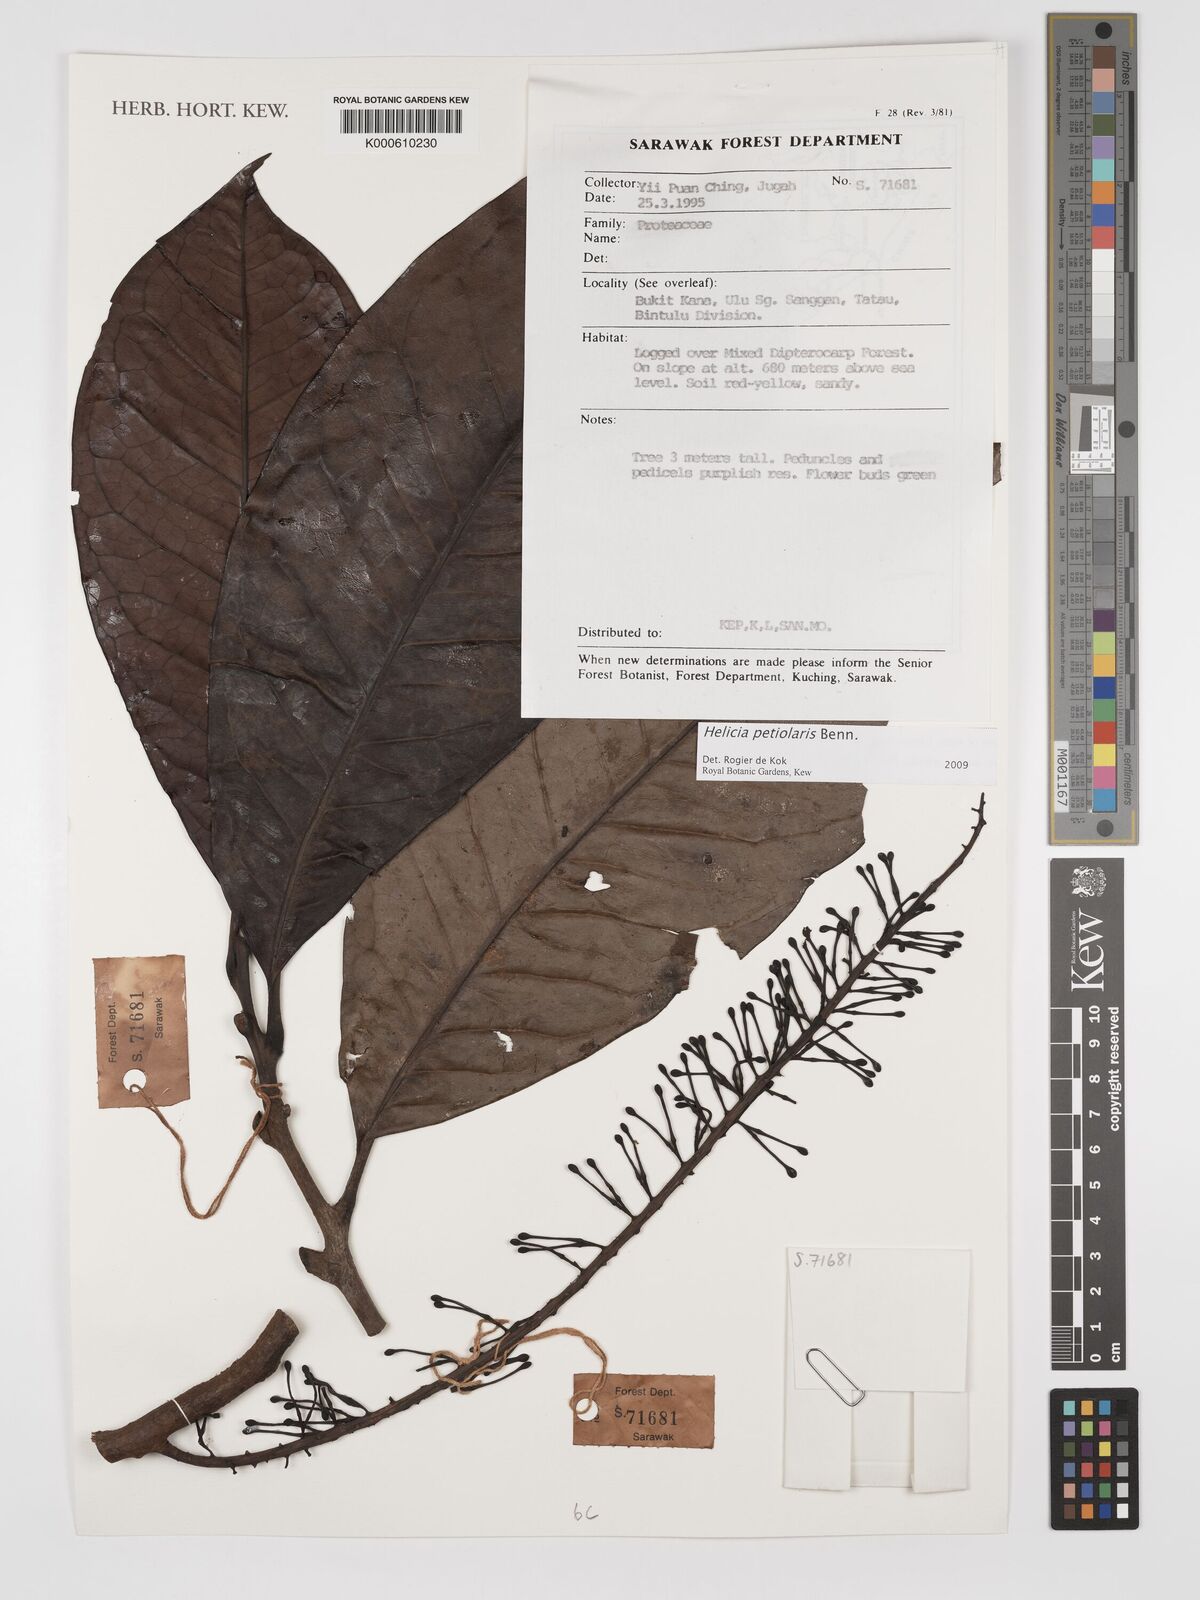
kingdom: Plantae
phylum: Tracheophyta
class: Magnoliopsida
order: Proteales
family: Proteaceae
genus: Helicia
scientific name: Helicia petiolaris
